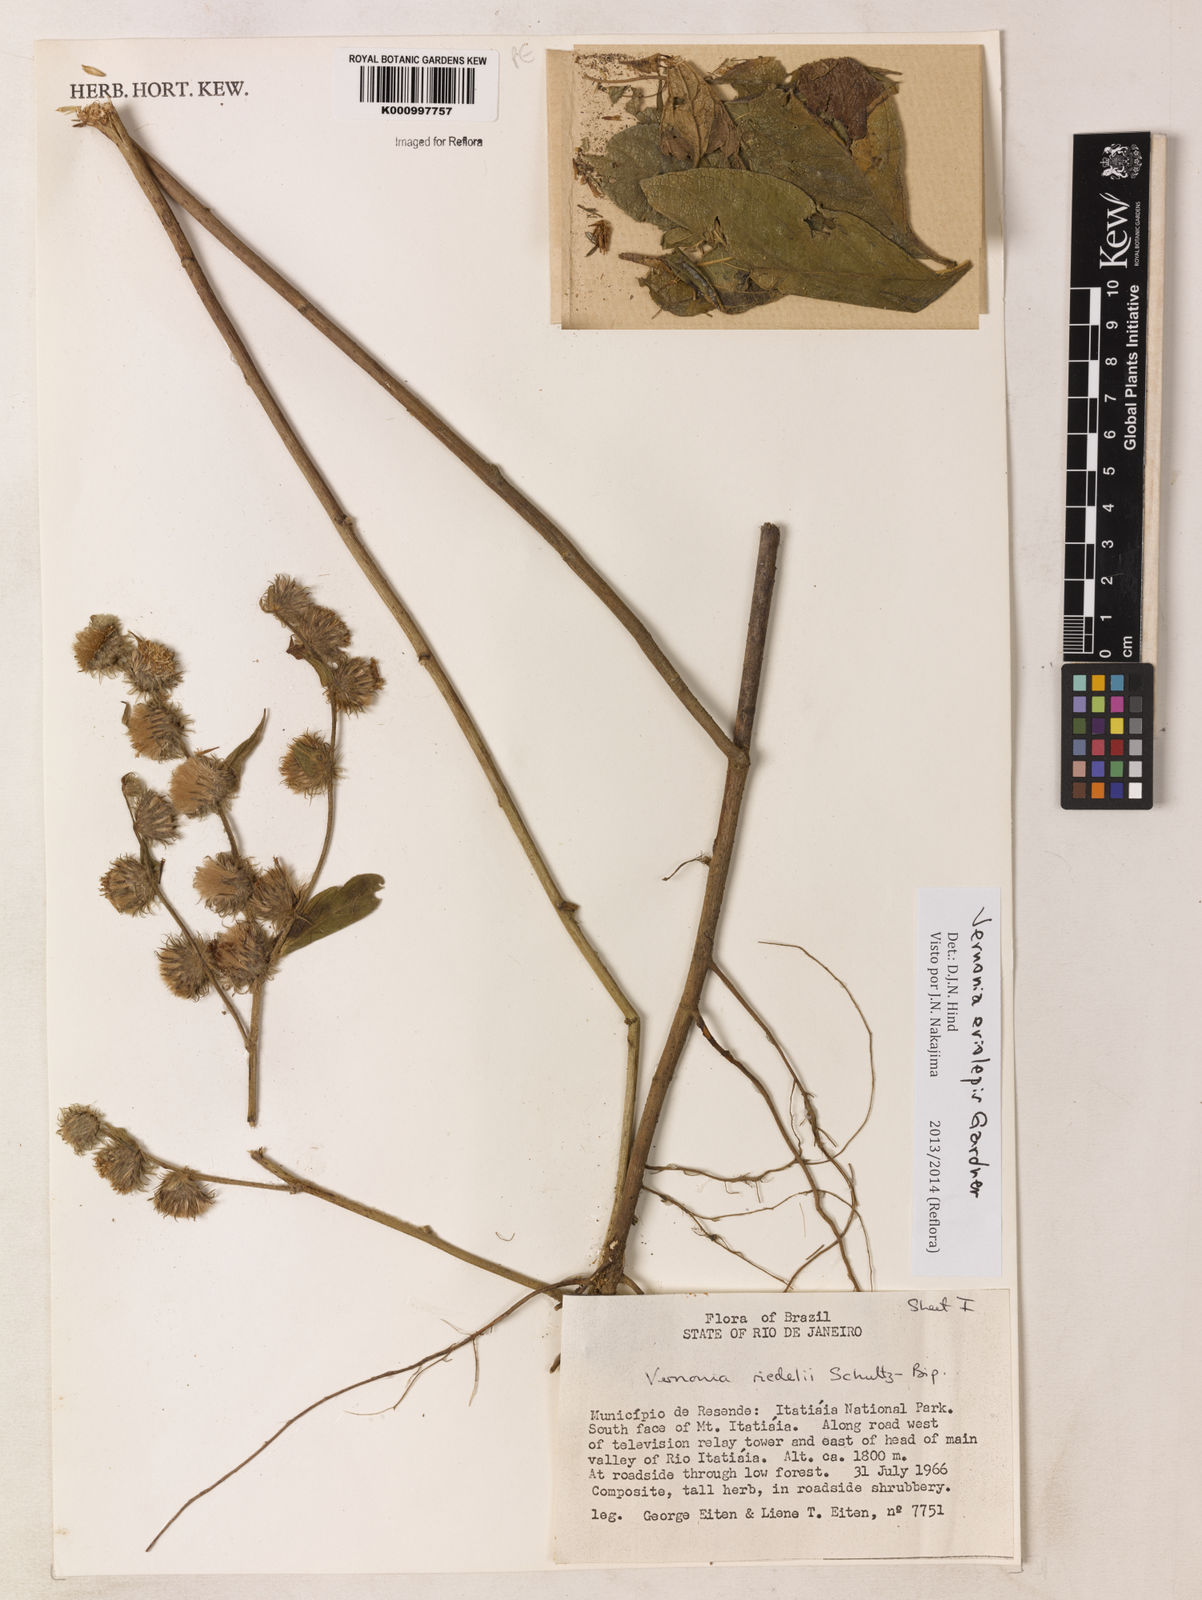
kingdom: Plantae
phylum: Tracheophyta
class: Magnoliopsida
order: Asterales
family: Asteraceae
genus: Lepidaploa
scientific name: Lepidaploa eriolepis
